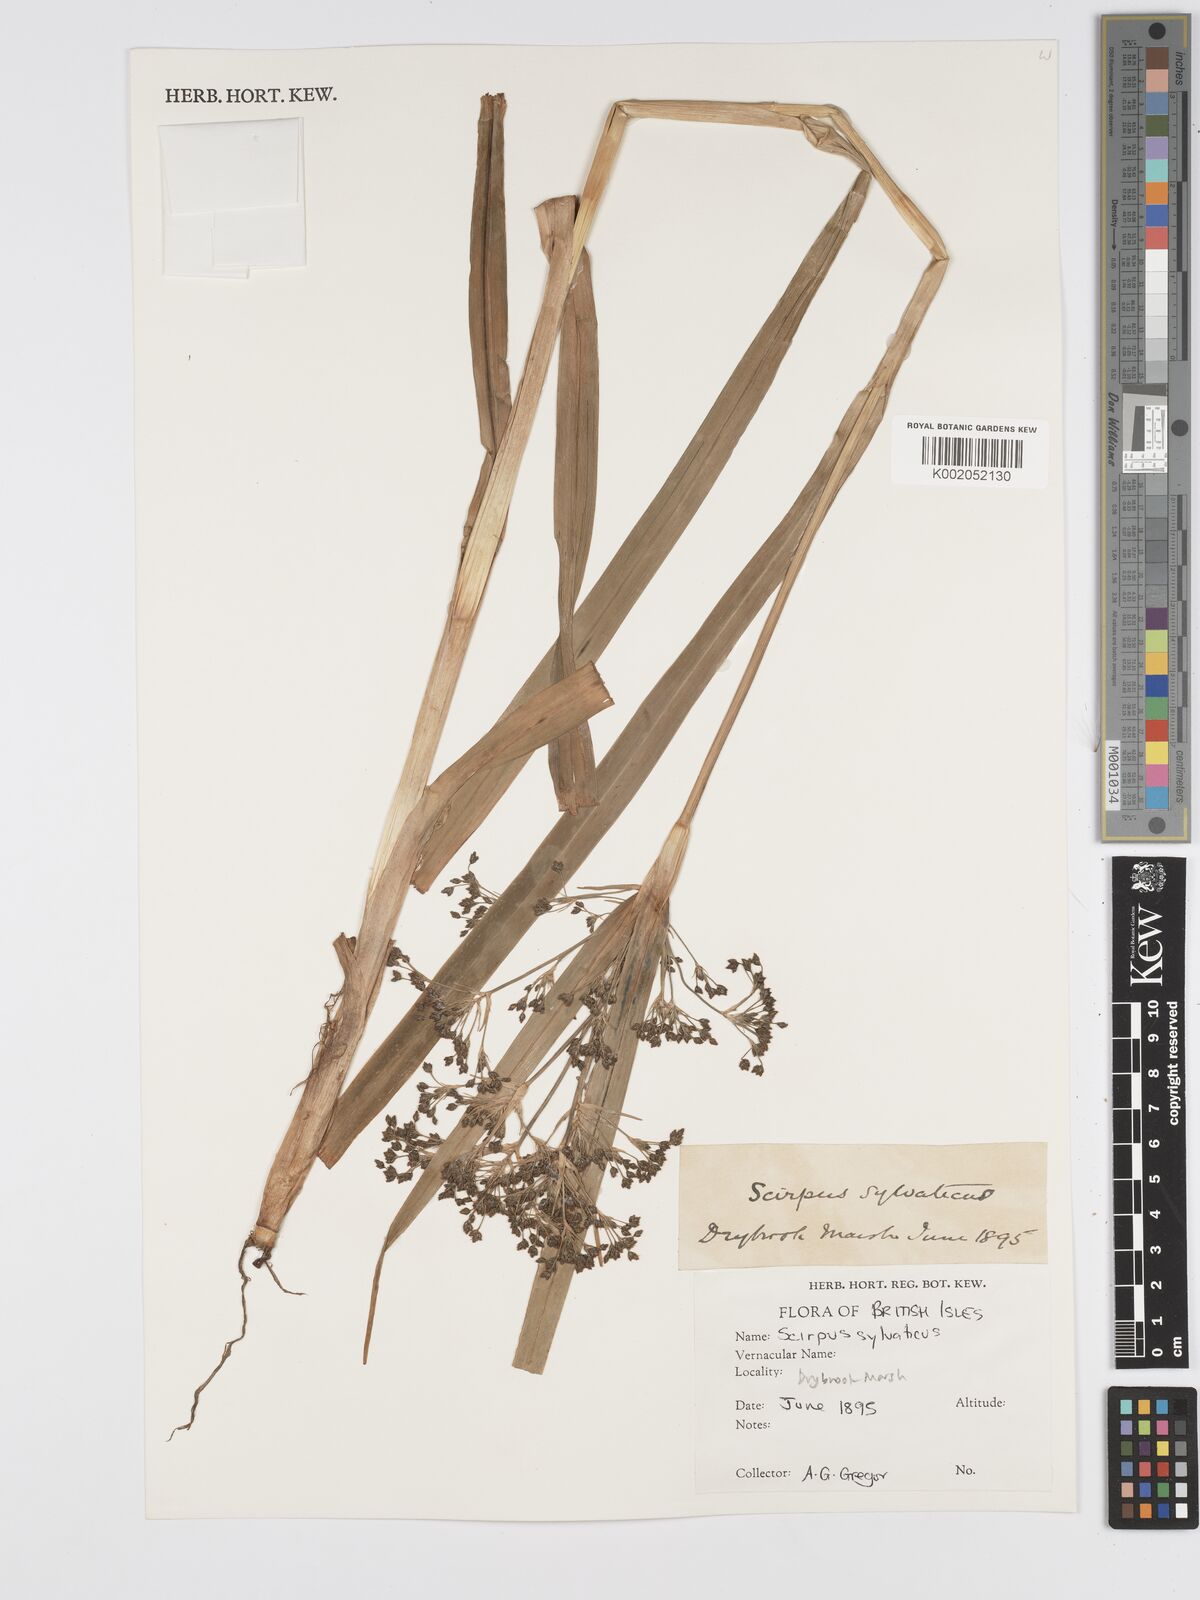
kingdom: Plantae
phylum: Tracheophyta
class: Liliopsida
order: Poales
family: Cyperaceae
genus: Scirpus
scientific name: Scirpus sylvaticus
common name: Wood club-rush
